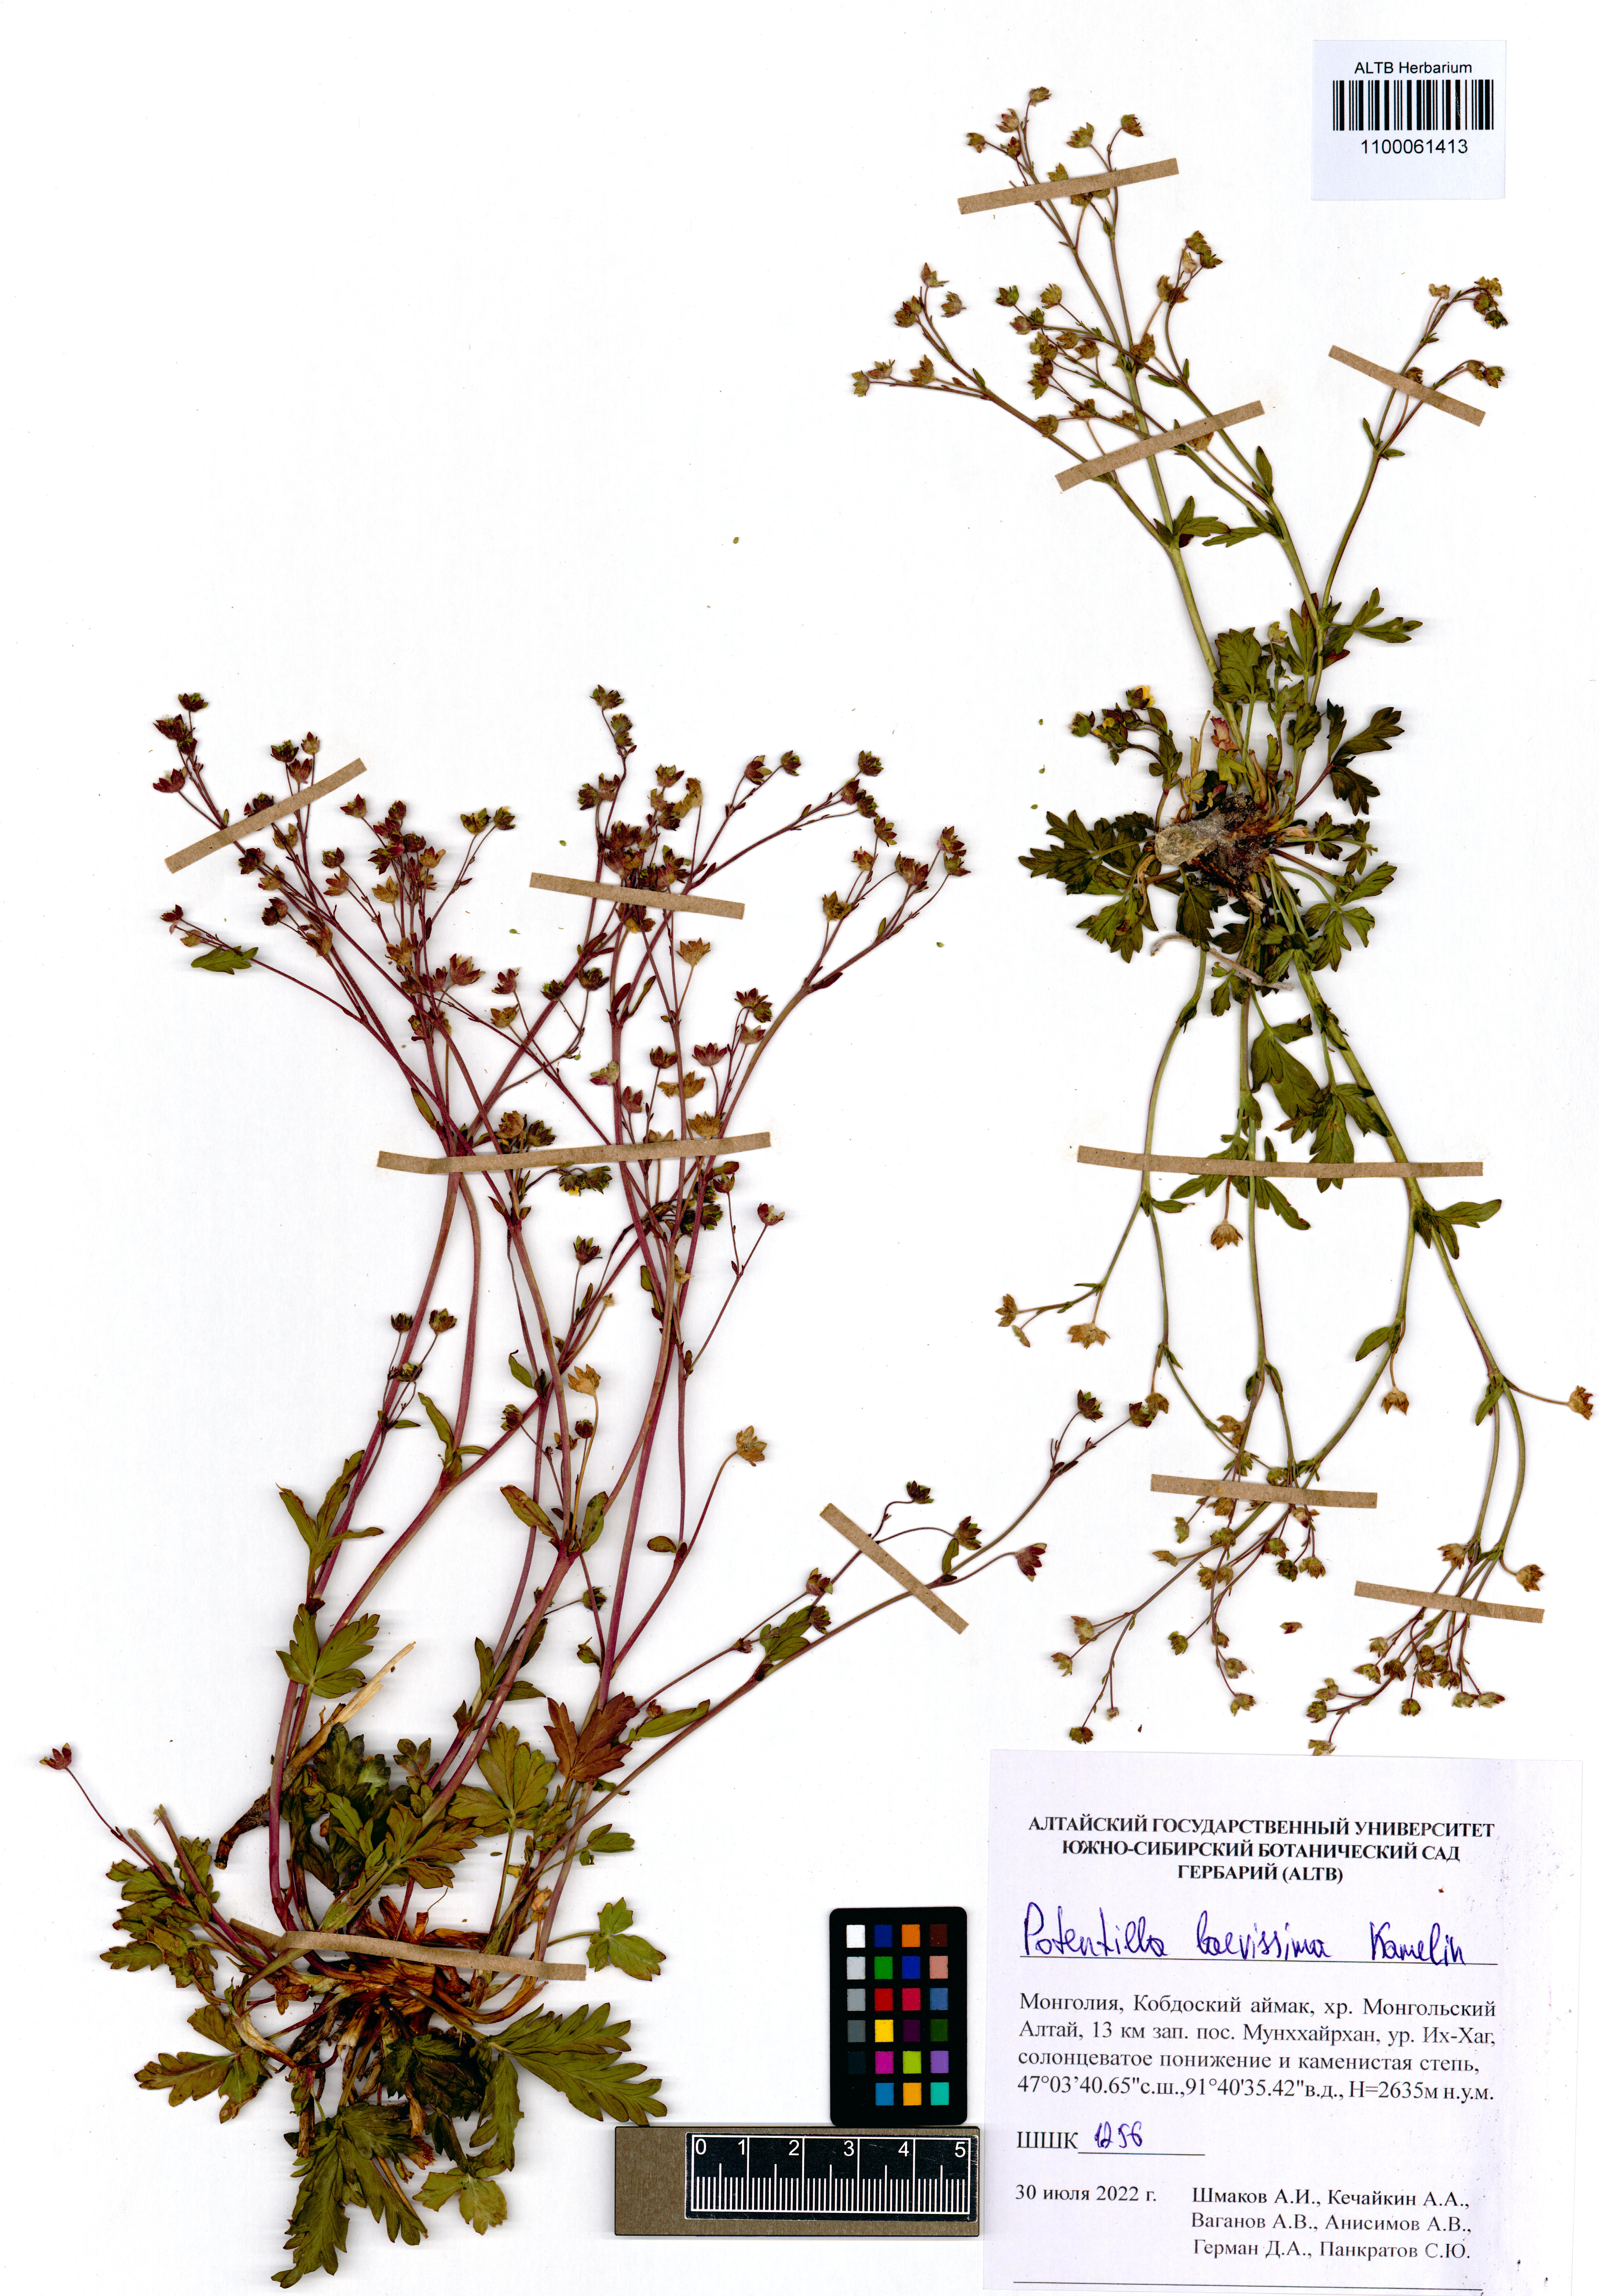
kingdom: Plantae
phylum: Tracheophyta
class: Magnoliopsida
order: Rosales
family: Rosaceae
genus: Potentilla
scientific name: Potentilla laevissima
